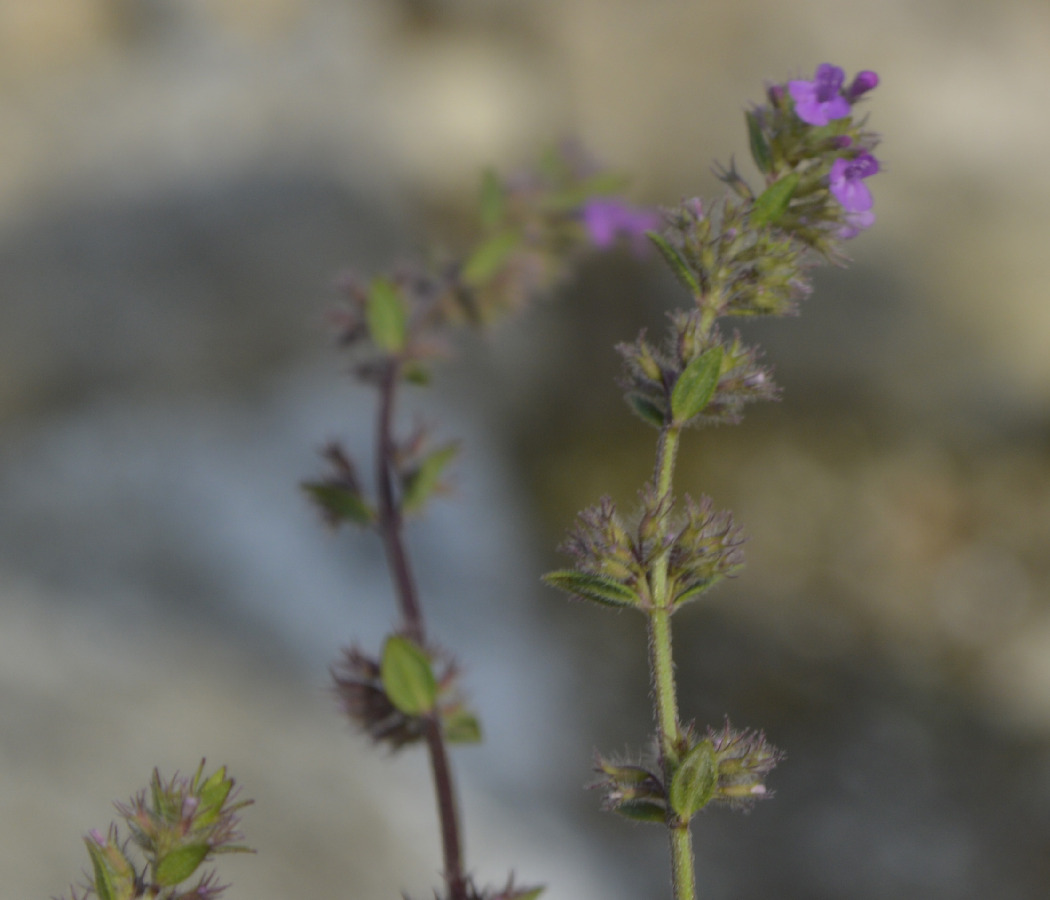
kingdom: Plantae
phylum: Tracheophyta
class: Magnoliopsida
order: Lamiales
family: Lamiaceae
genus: Micromeria
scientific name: Micromeria nervosa
